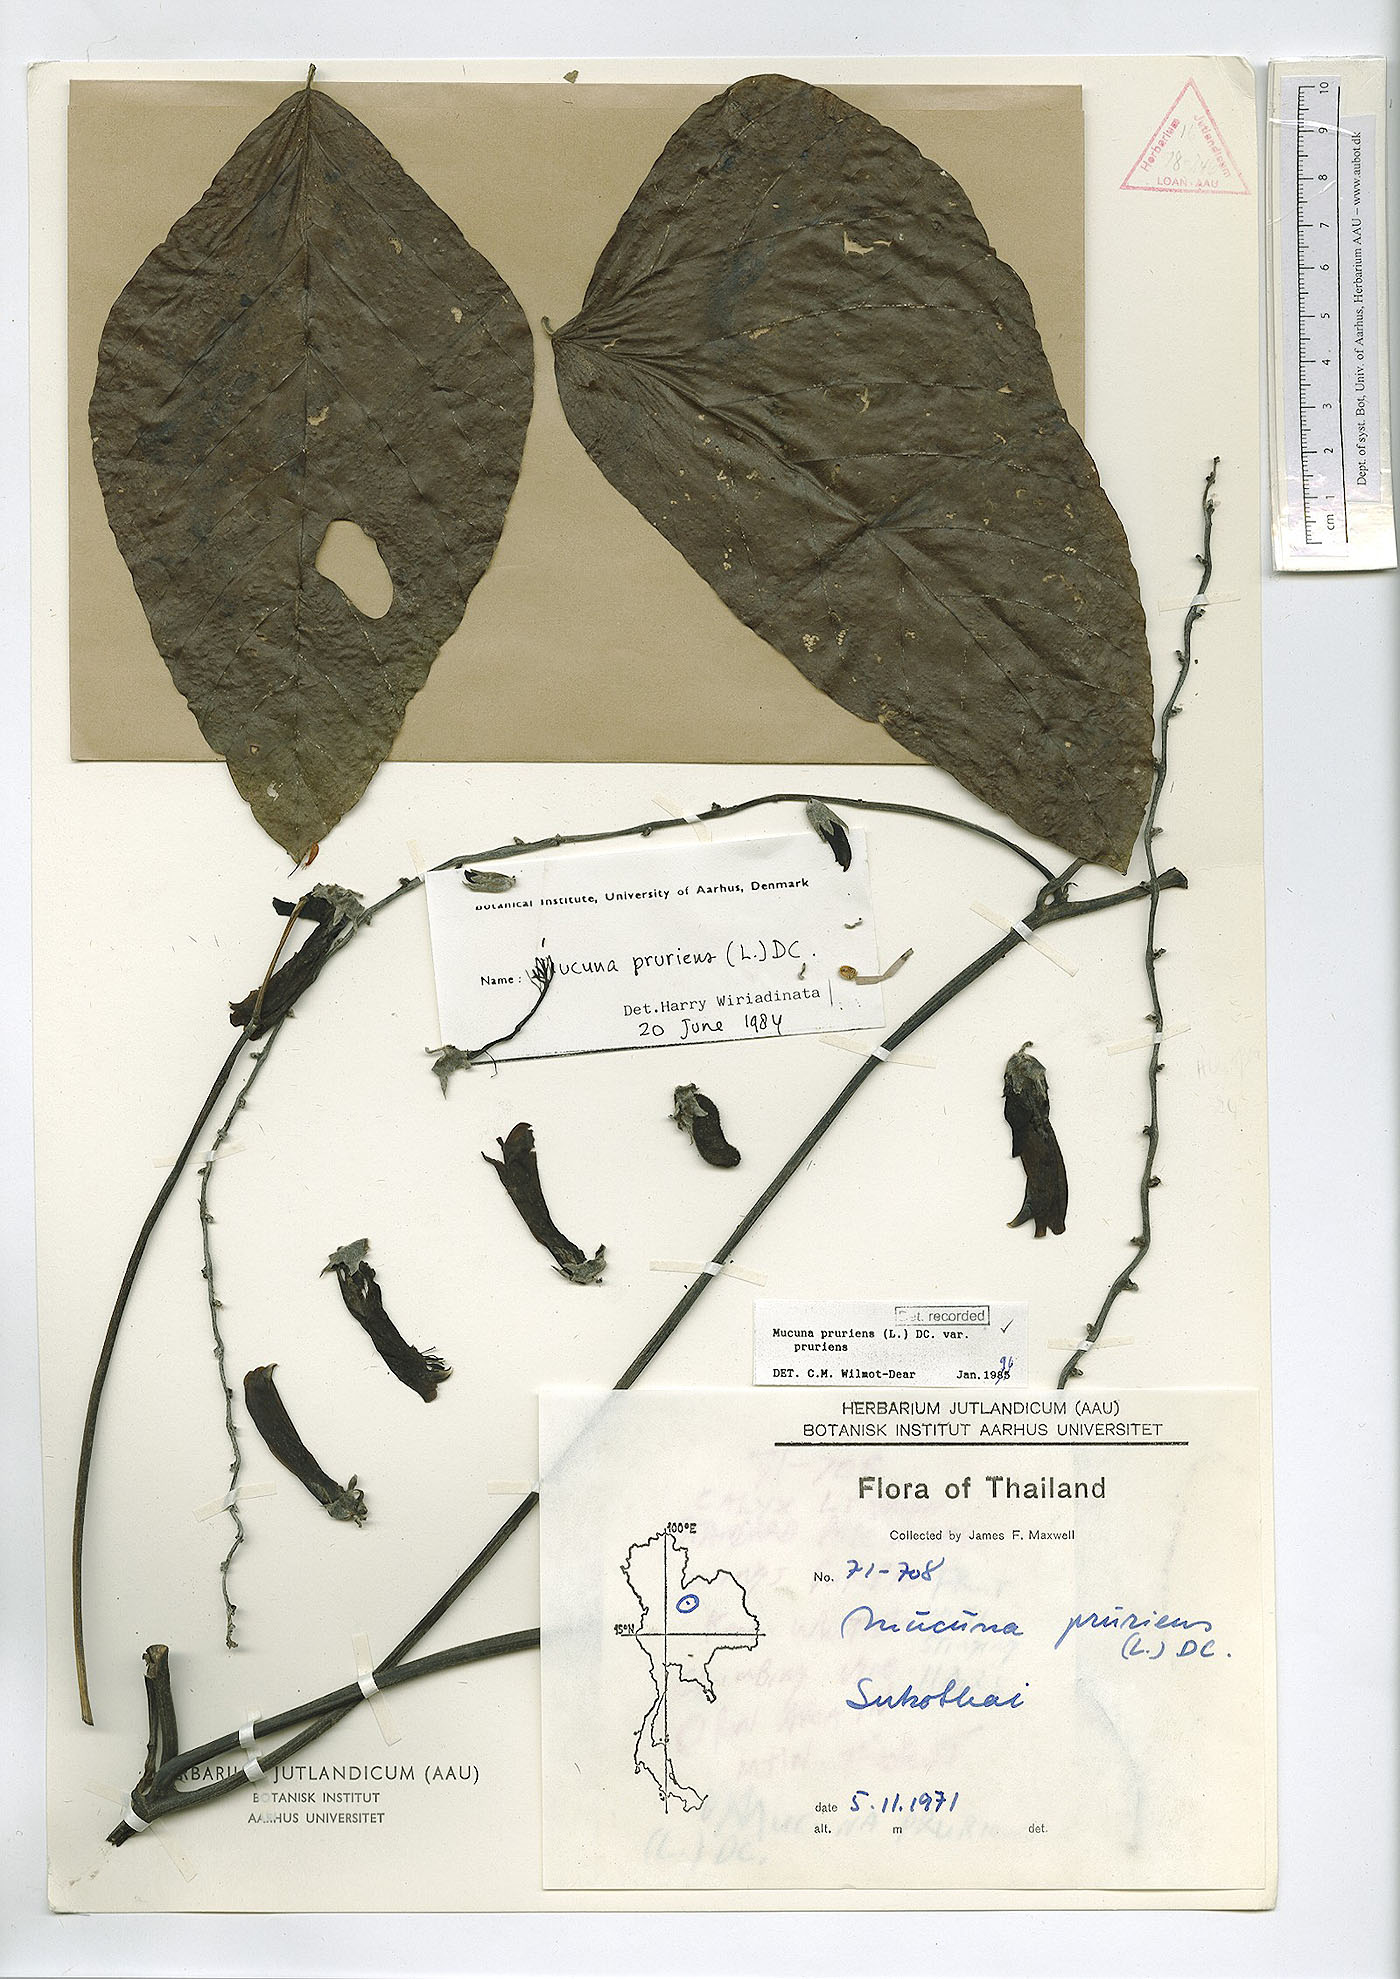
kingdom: Plantae
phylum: Tracheophyta
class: Magnoliopsida
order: Fabales
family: Fabaceae
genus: Mucuna
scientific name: Mucuna pruriens
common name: Cow-itch
